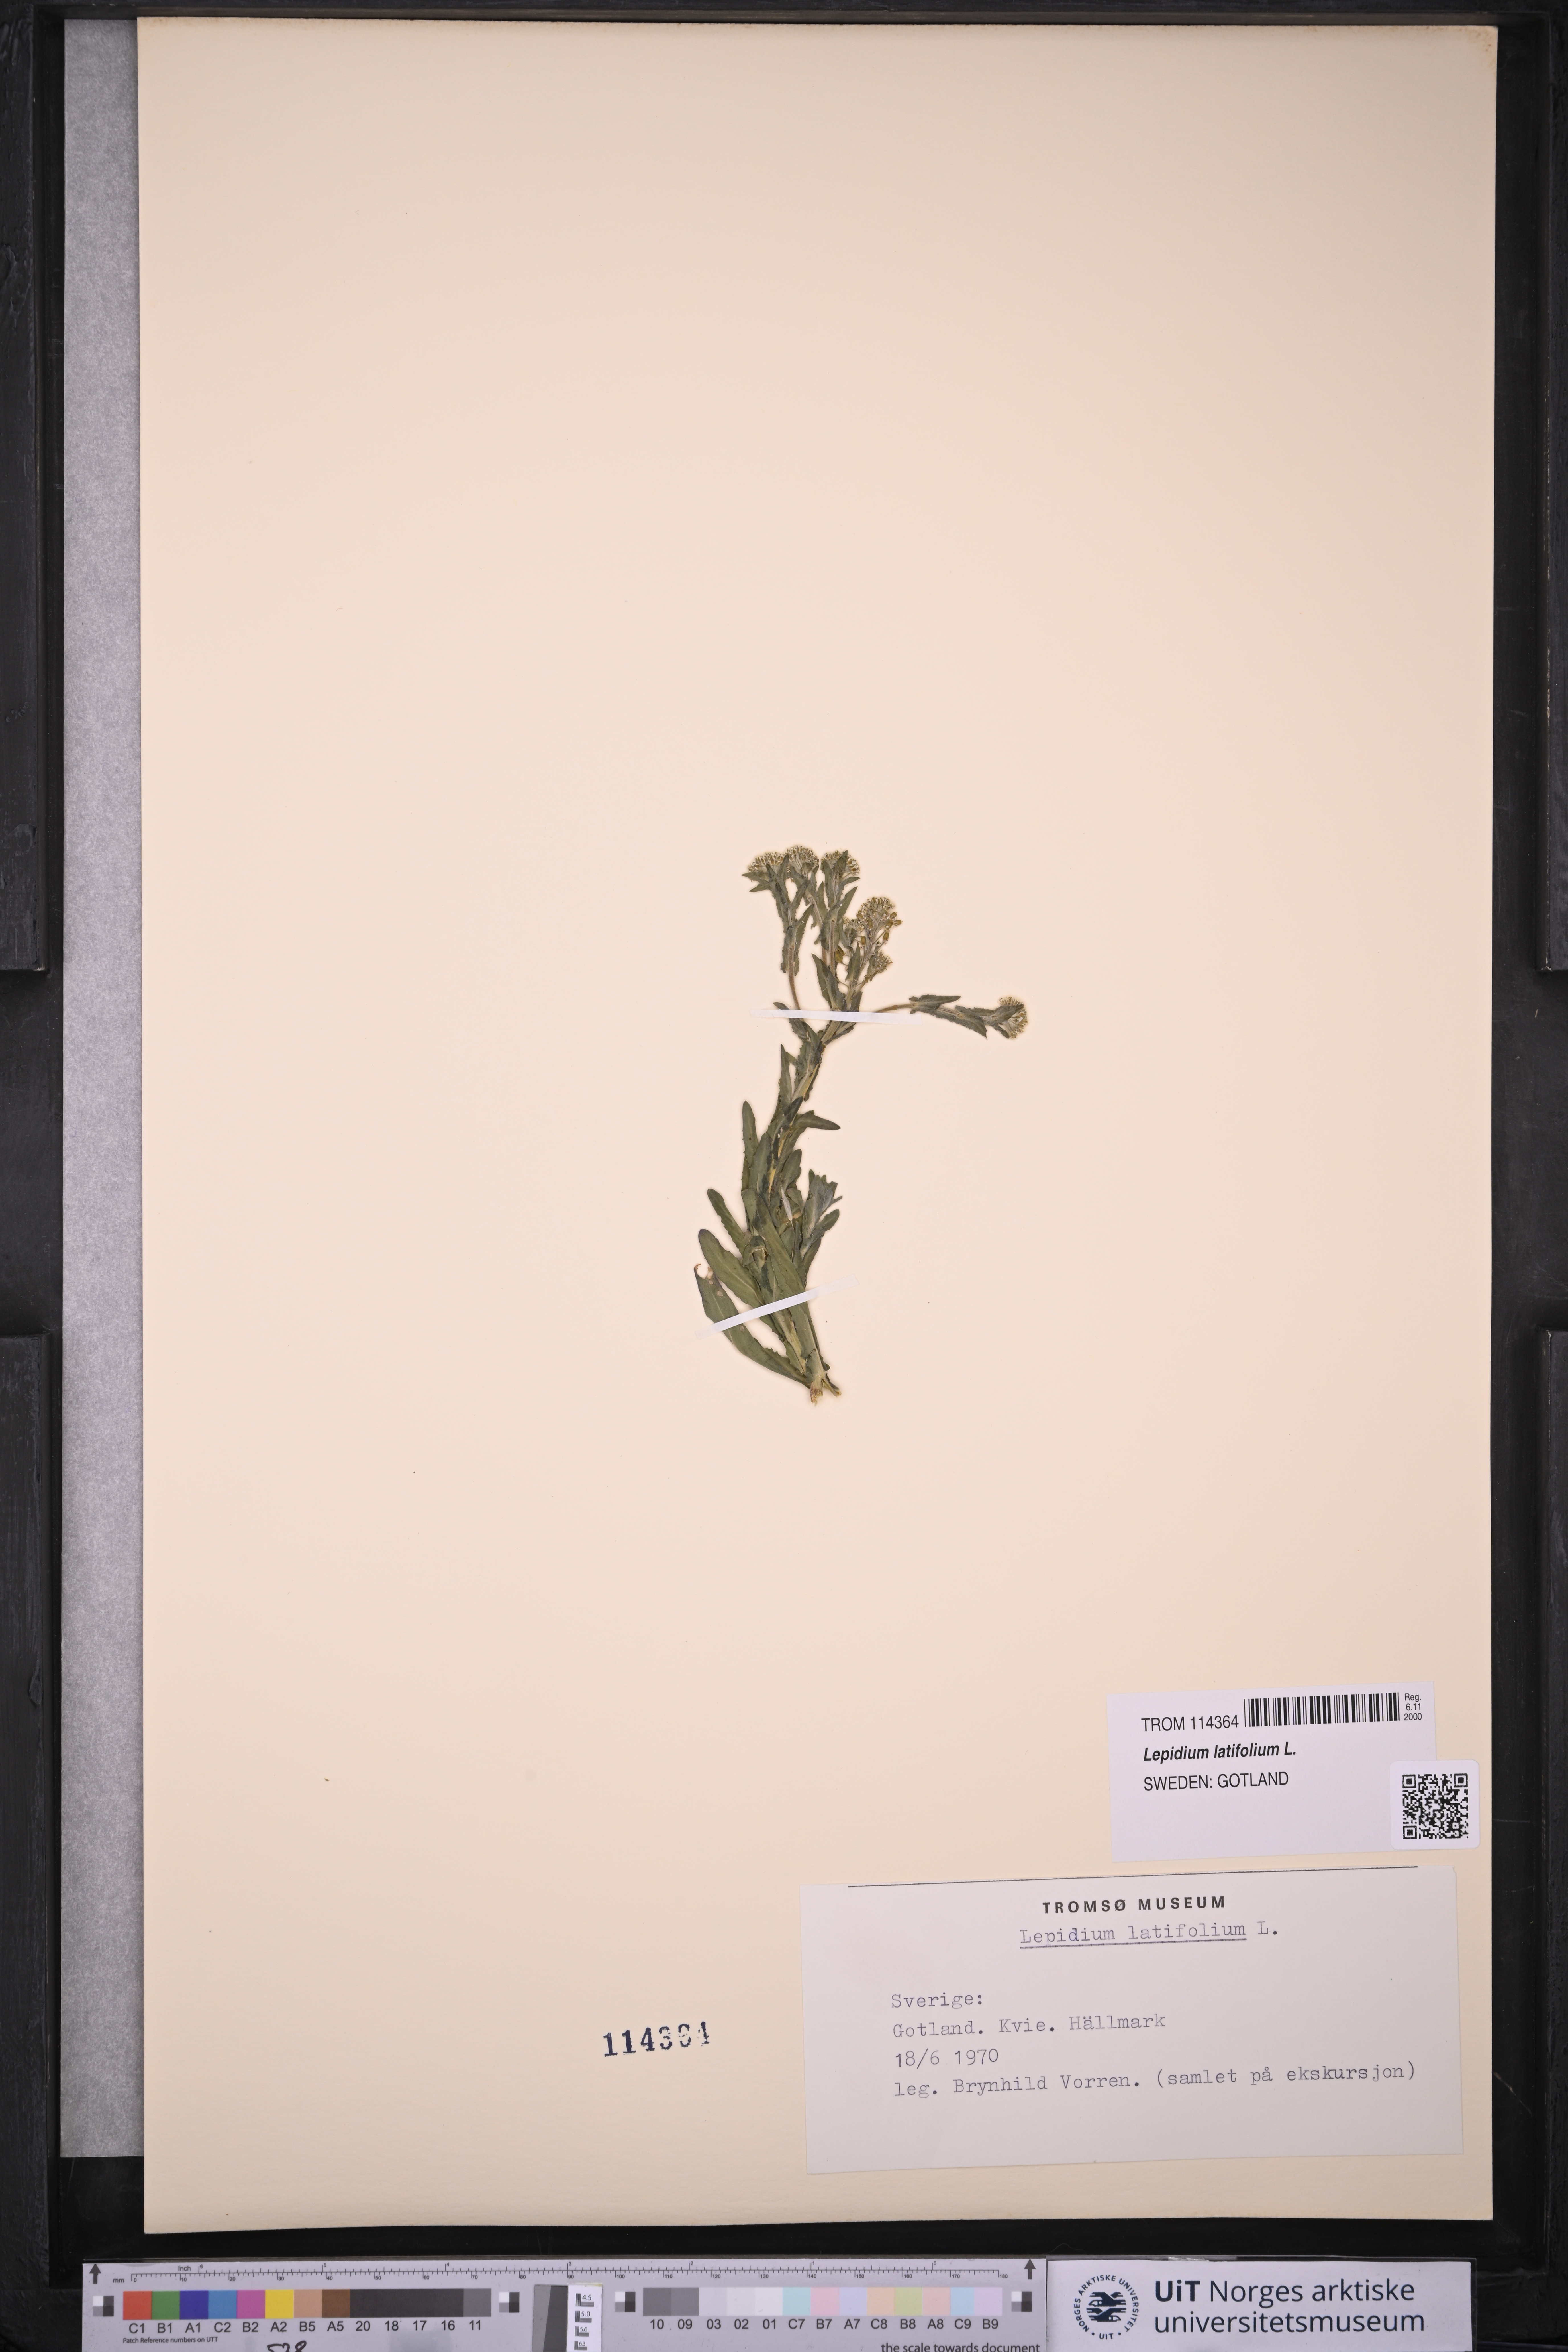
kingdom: Plantae
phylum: Tracheophyta
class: Magnoliopsida
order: Brassicales
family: Brassicaceae
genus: Lepidium
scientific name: Lepidium latifolium
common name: Dittander
